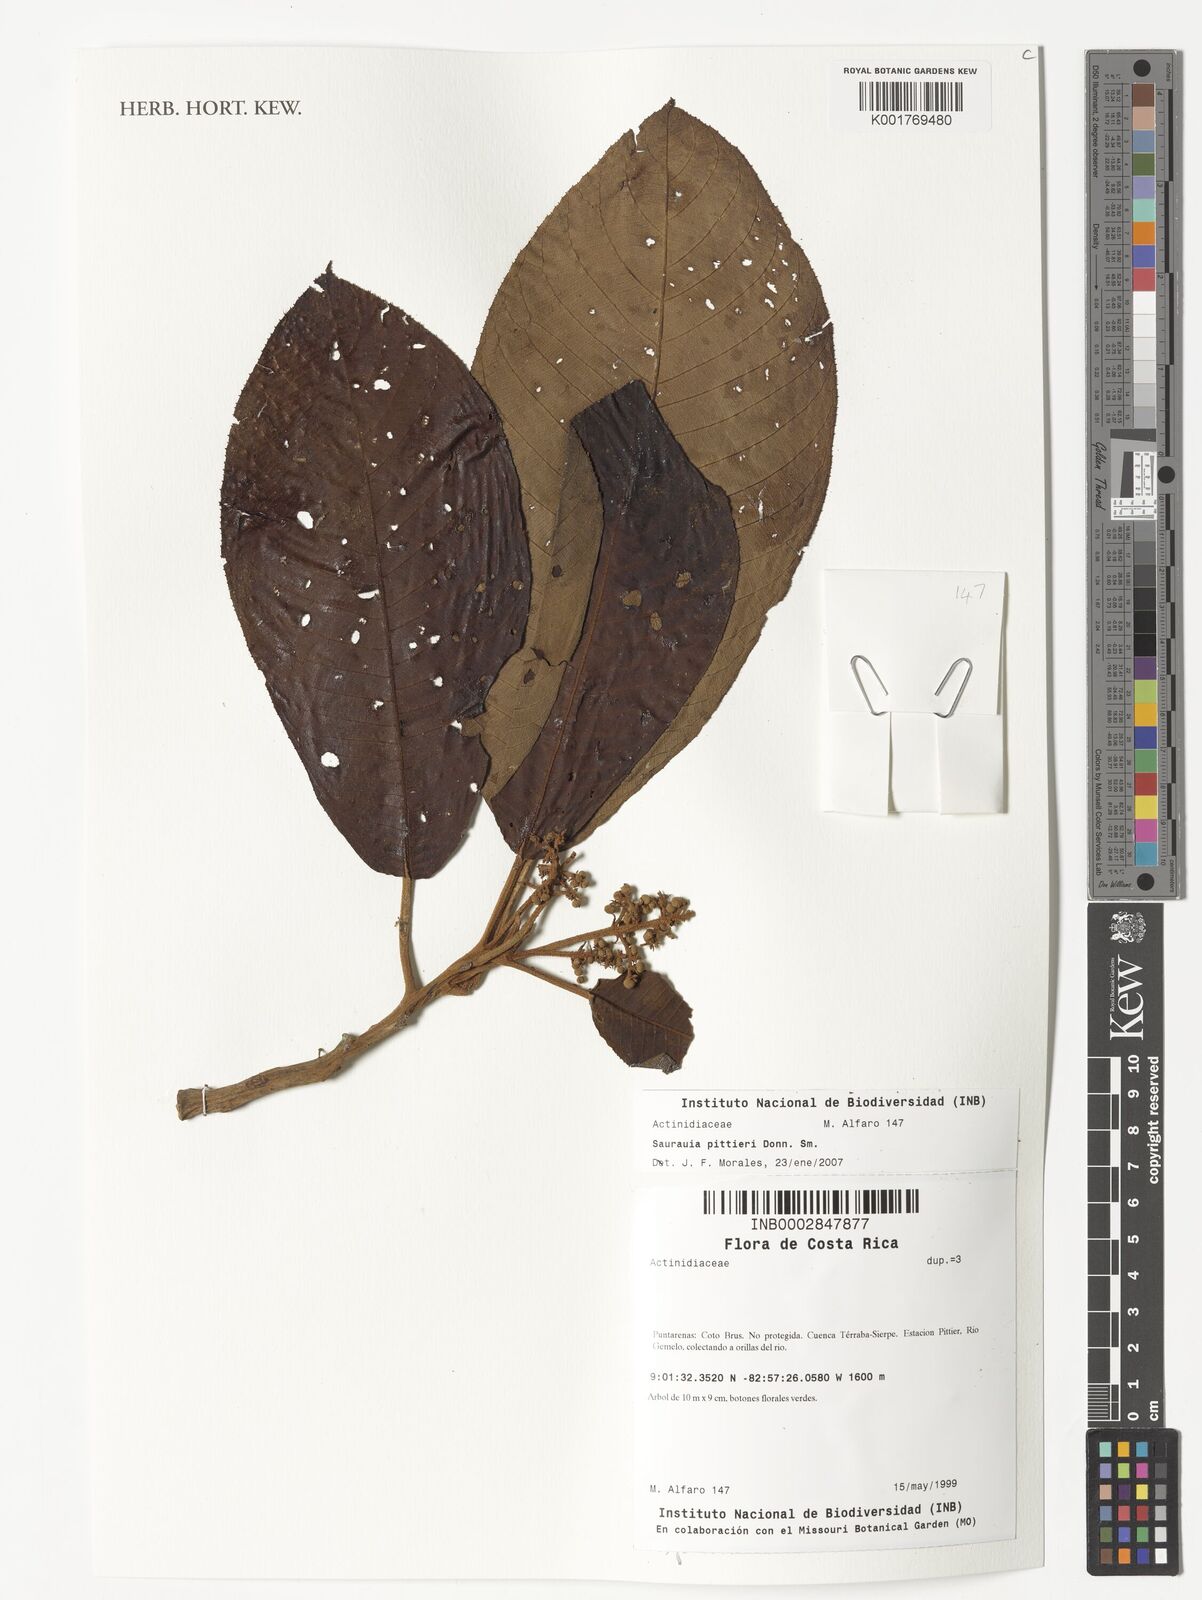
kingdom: Plantae
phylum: Tracheophyta
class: Magnoliopsida
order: Ericales
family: Actinidiaceae
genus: Saurauia
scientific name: Saurauia pittieri
